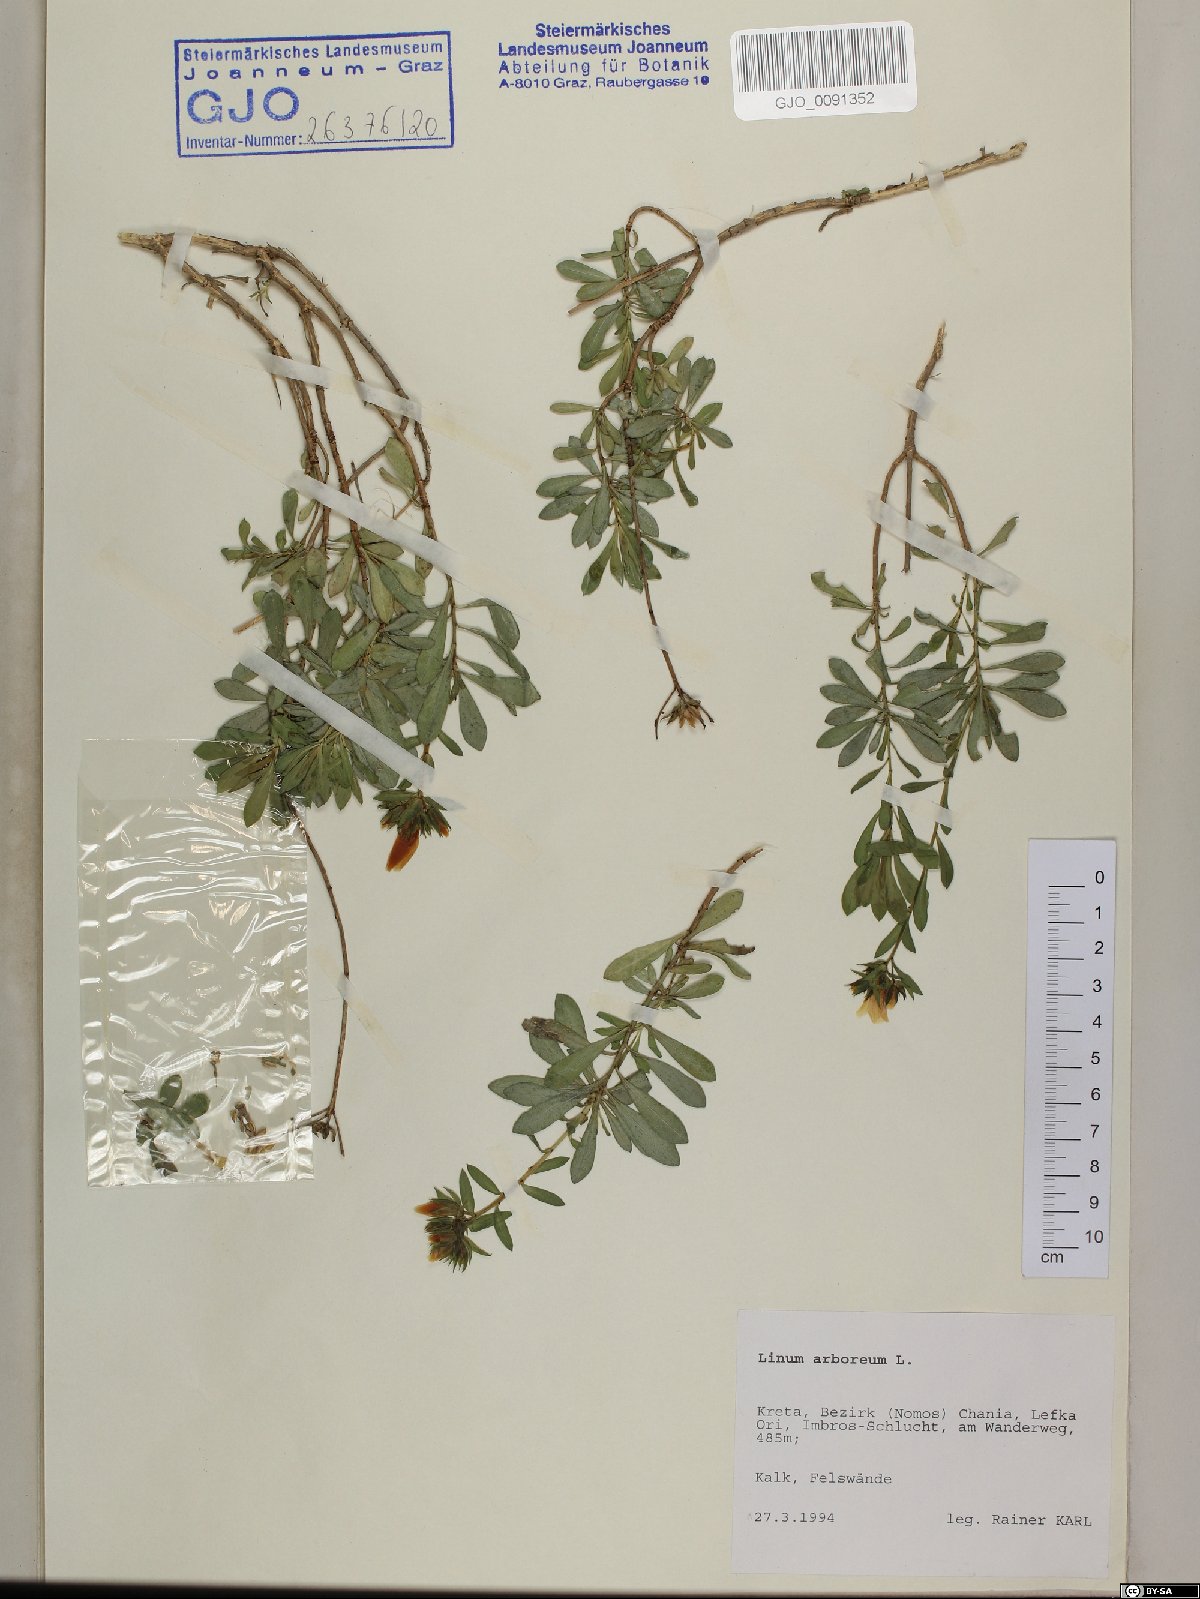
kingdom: Plantae
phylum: Tracheophyta
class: Magnoliopsida
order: Malpighiales
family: Linaceae
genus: Linum
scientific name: Linum arboreum
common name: Tree flax
